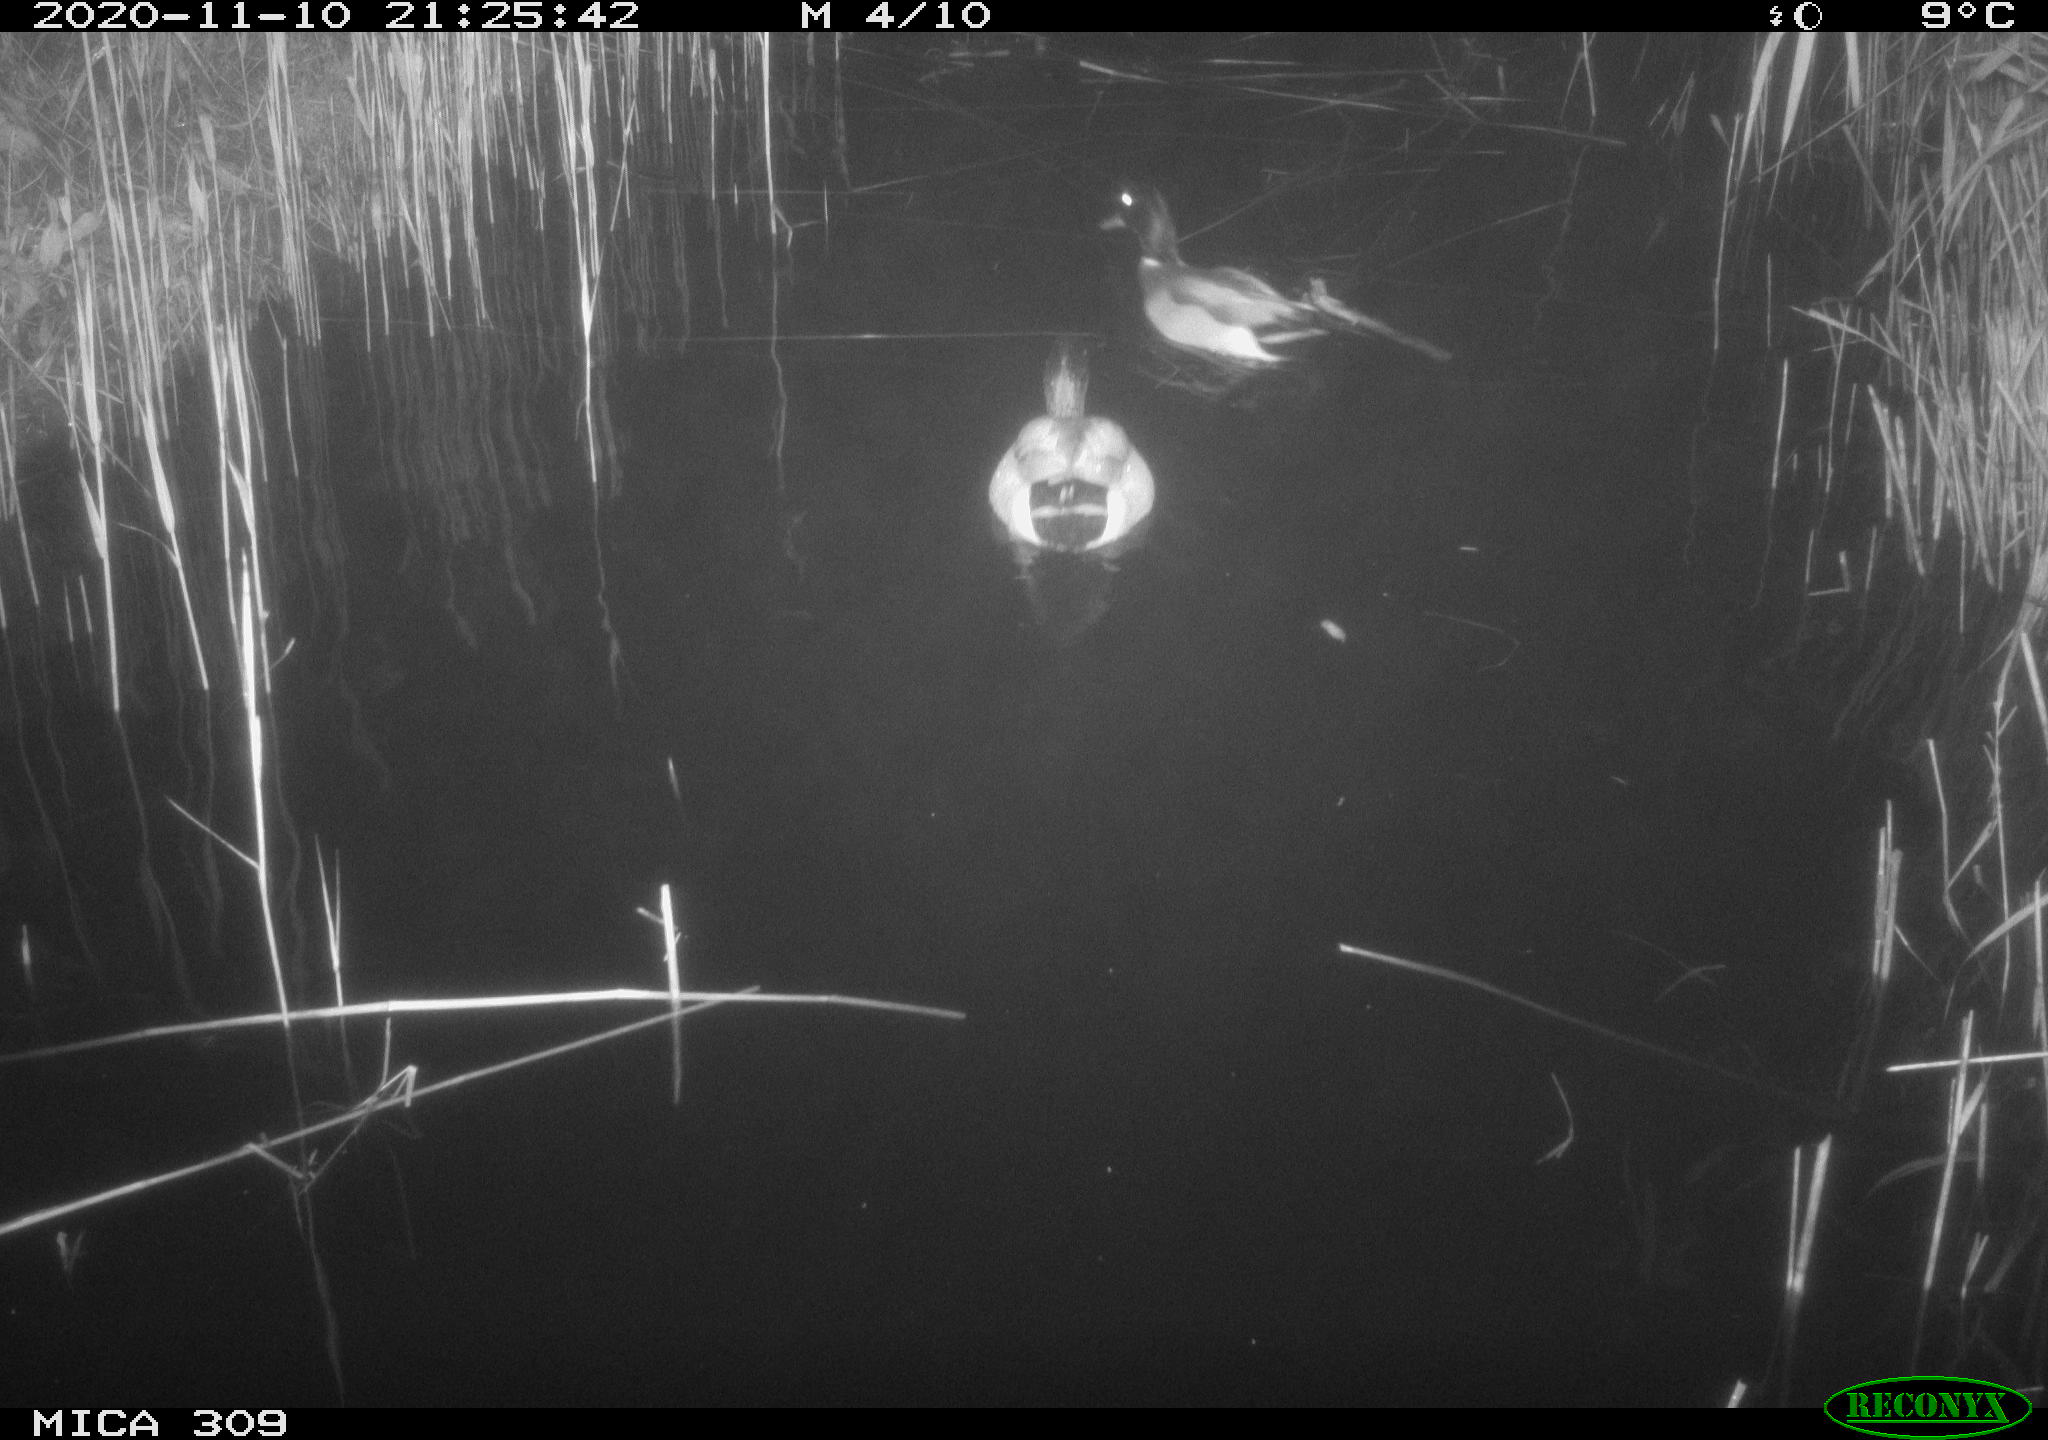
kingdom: Animalia
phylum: Chordata
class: Aves
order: Anseriformes
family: Anatidae
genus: Anas
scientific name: Anas platyrhynchos
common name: Mallard
